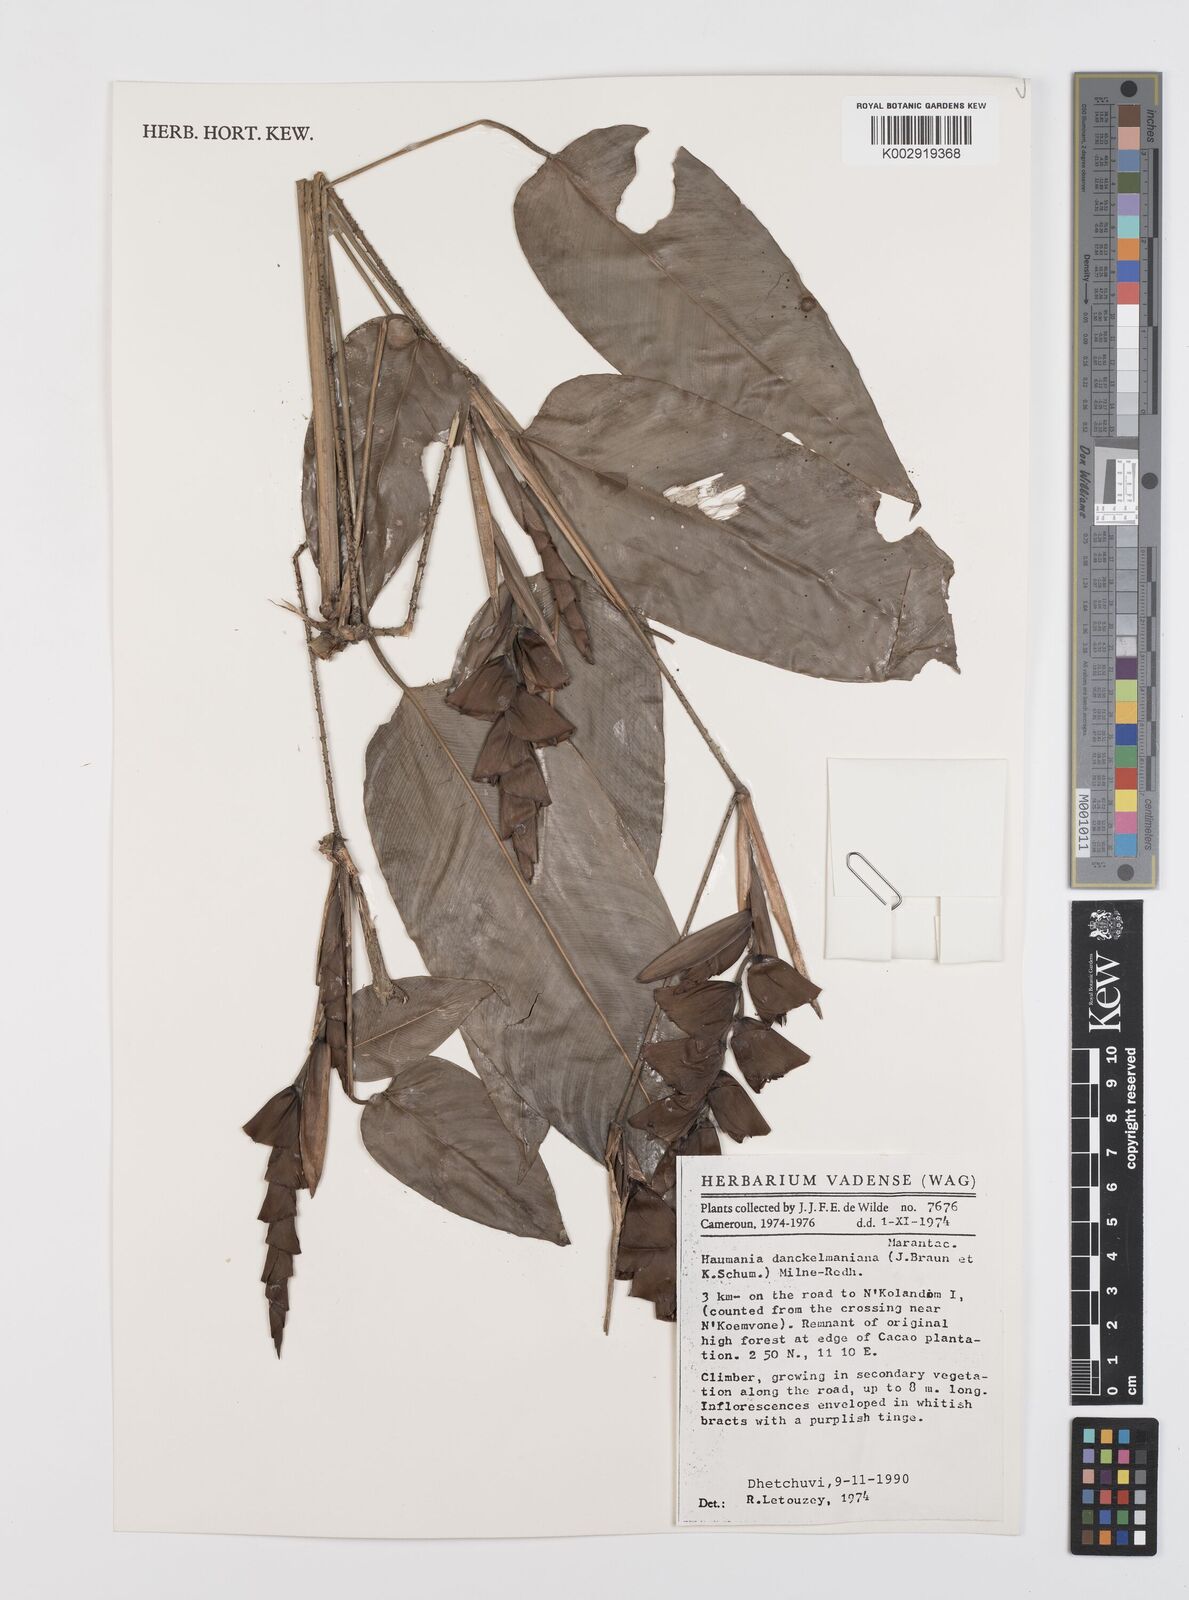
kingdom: Plantae
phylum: Tracheophyta
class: Liliopsida
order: Zingiberales
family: Marantaceae
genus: Haumania
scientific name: Haumania danckelmaniana
